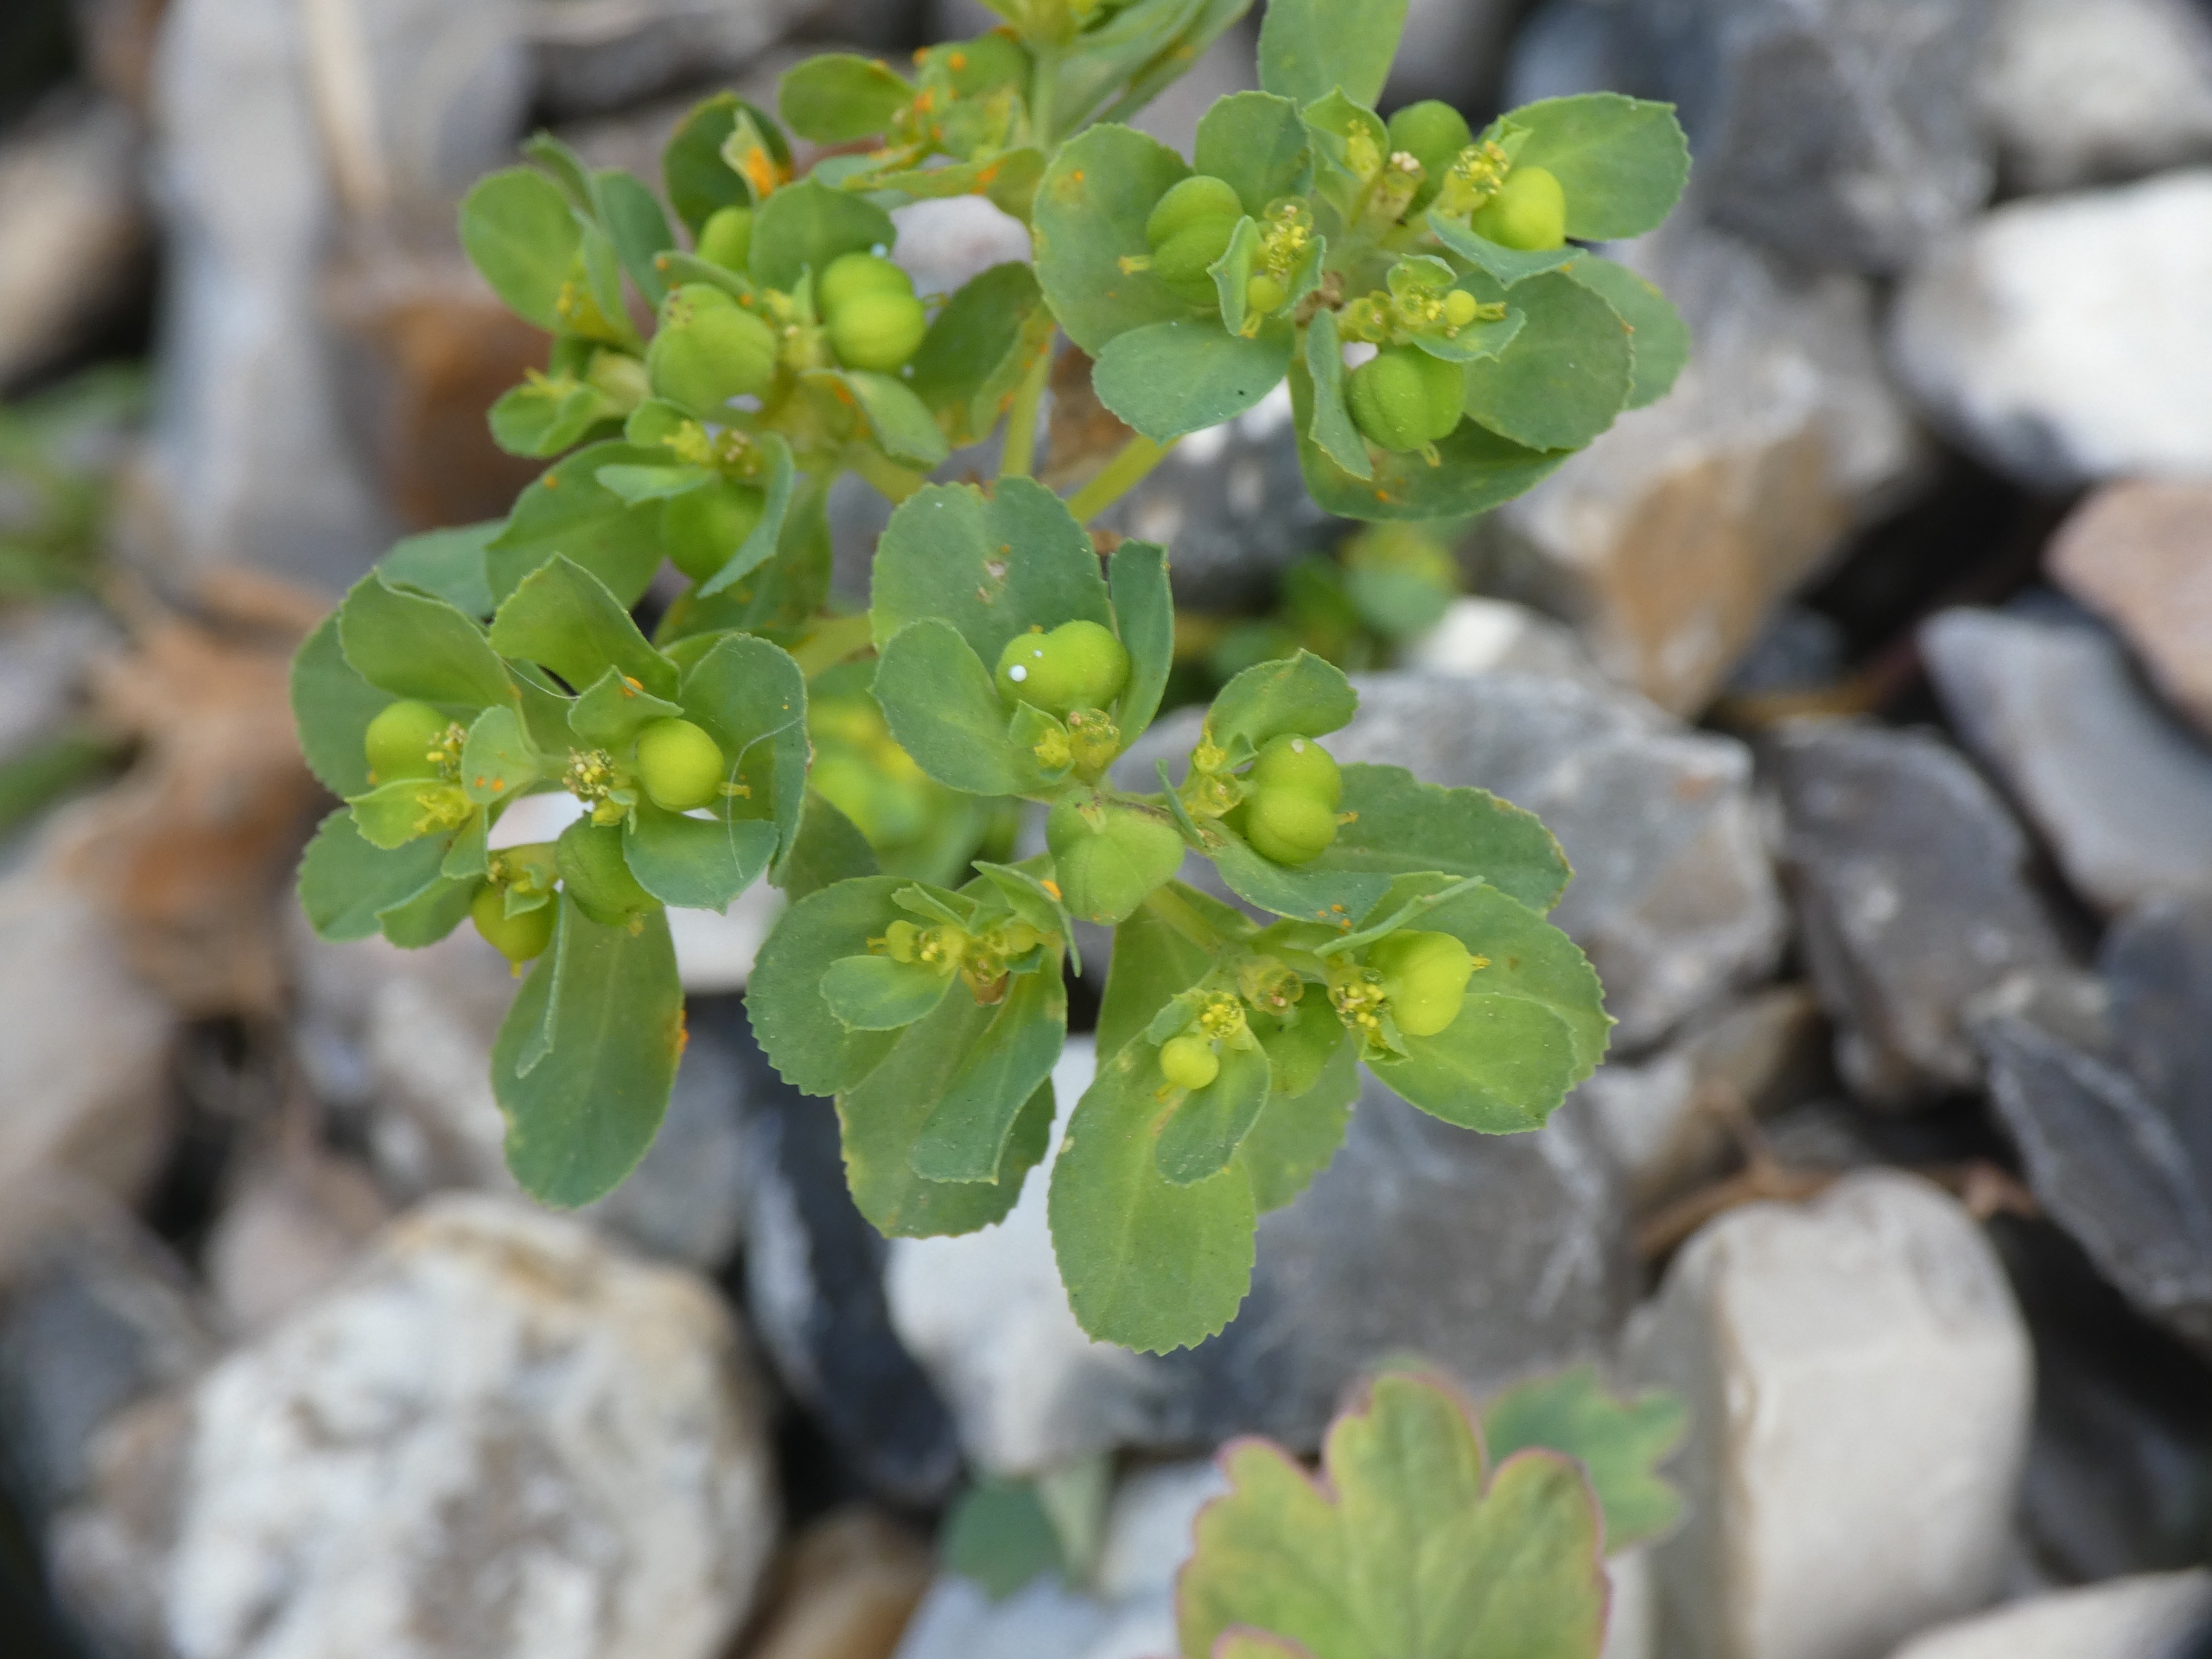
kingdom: Plantae
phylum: Tracheophyta
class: Magnoliopsida
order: Malpighiales
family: Euphorbiaceae
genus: Euphorbia
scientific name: Euphorbia helioscopia
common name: Skærm-vortemælk
